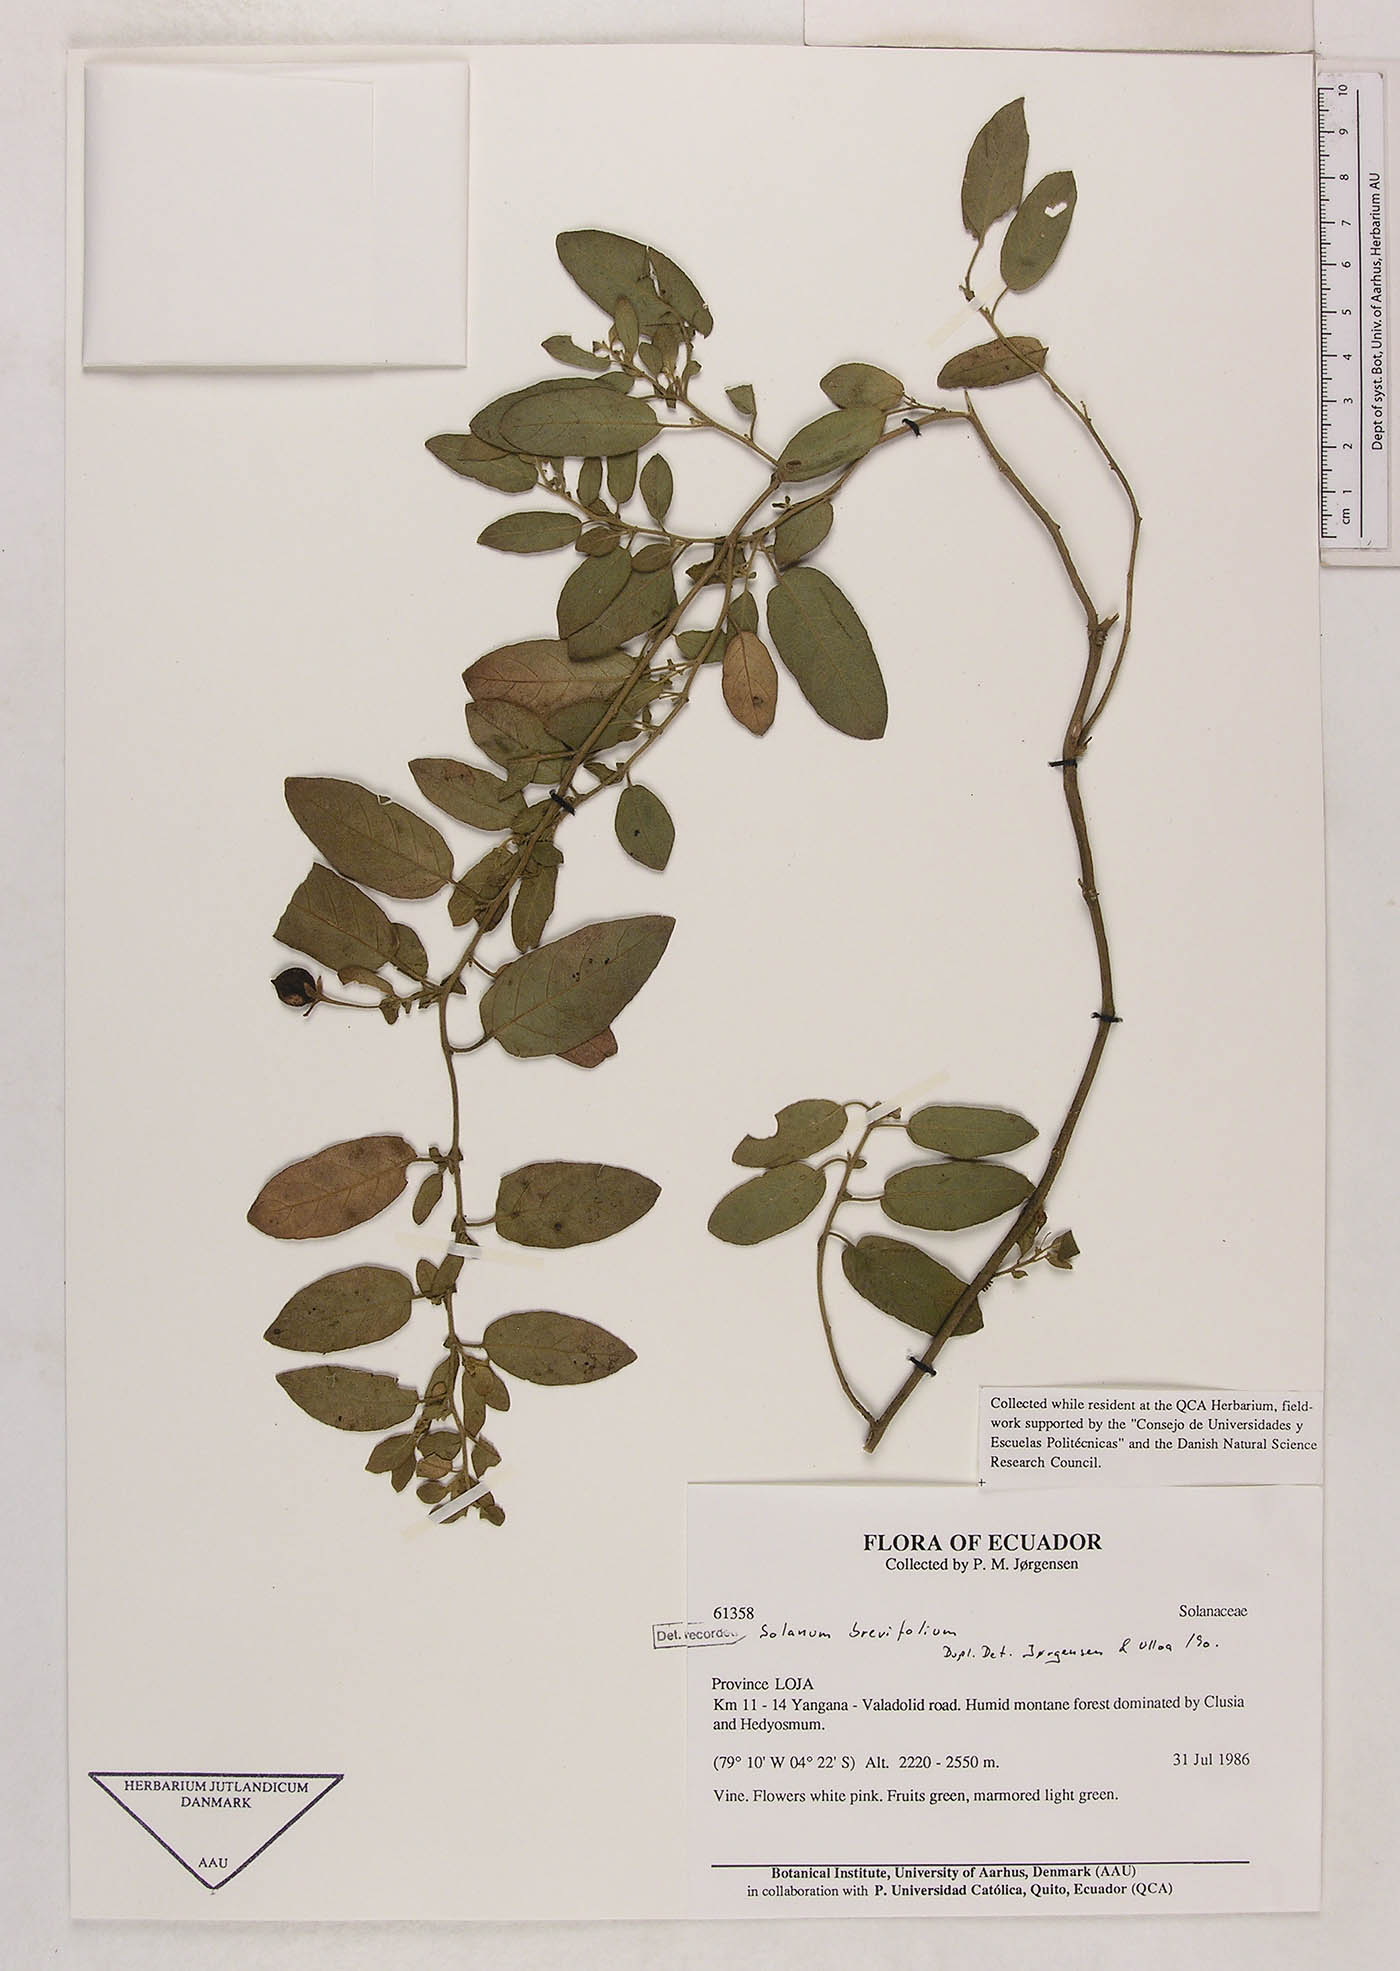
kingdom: Plantae
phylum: Tracheophyta
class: Magnoliopsida
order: Solanales
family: Solanaceae
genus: Solanum
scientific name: Solanum brevifolium
